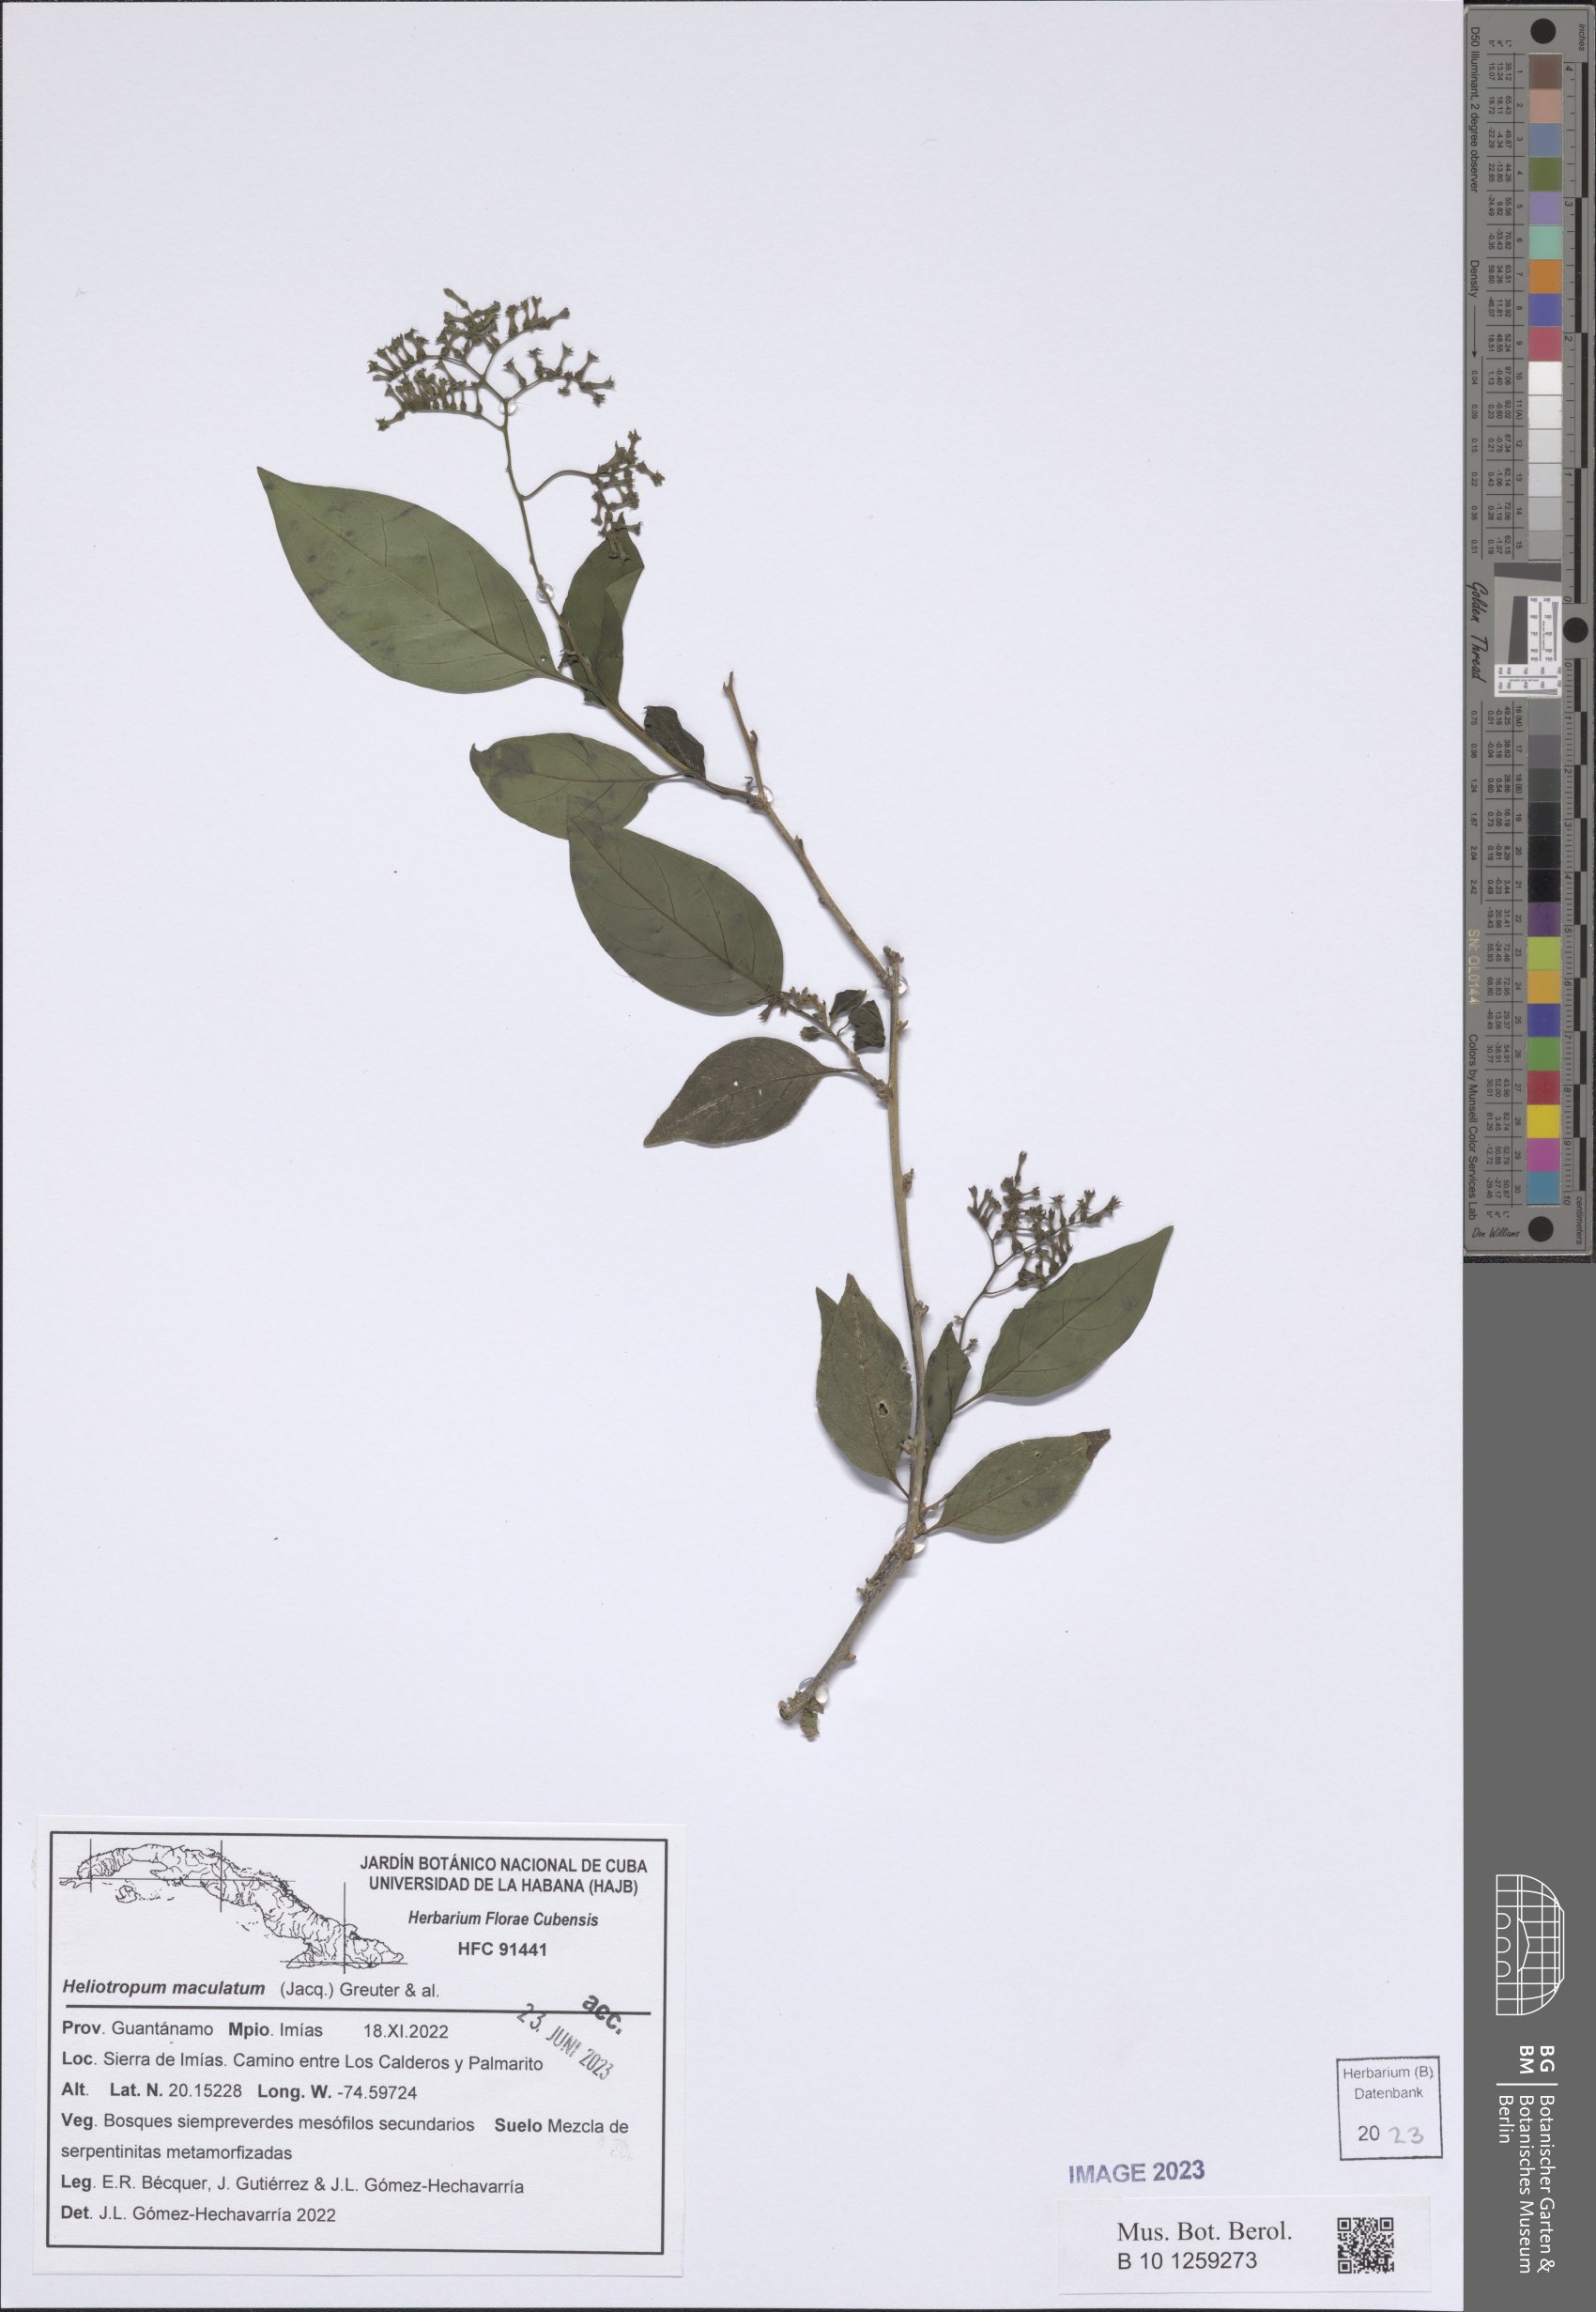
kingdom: Plantae
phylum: Tracheophyta
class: Magnoliopsida
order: Boraginales
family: Heliotropiaceae
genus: Myriopus
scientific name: Myriopus maculatus
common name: Laurel-leaf soldierbush
